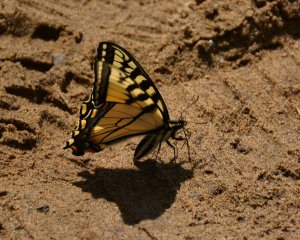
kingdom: Animalia
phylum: Arthropoda
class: Insecta
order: Lepidoptera
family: Papilionidae
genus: Pterourus
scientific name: Pterourus canadensis
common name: Canadian Tiger Swallowtail
